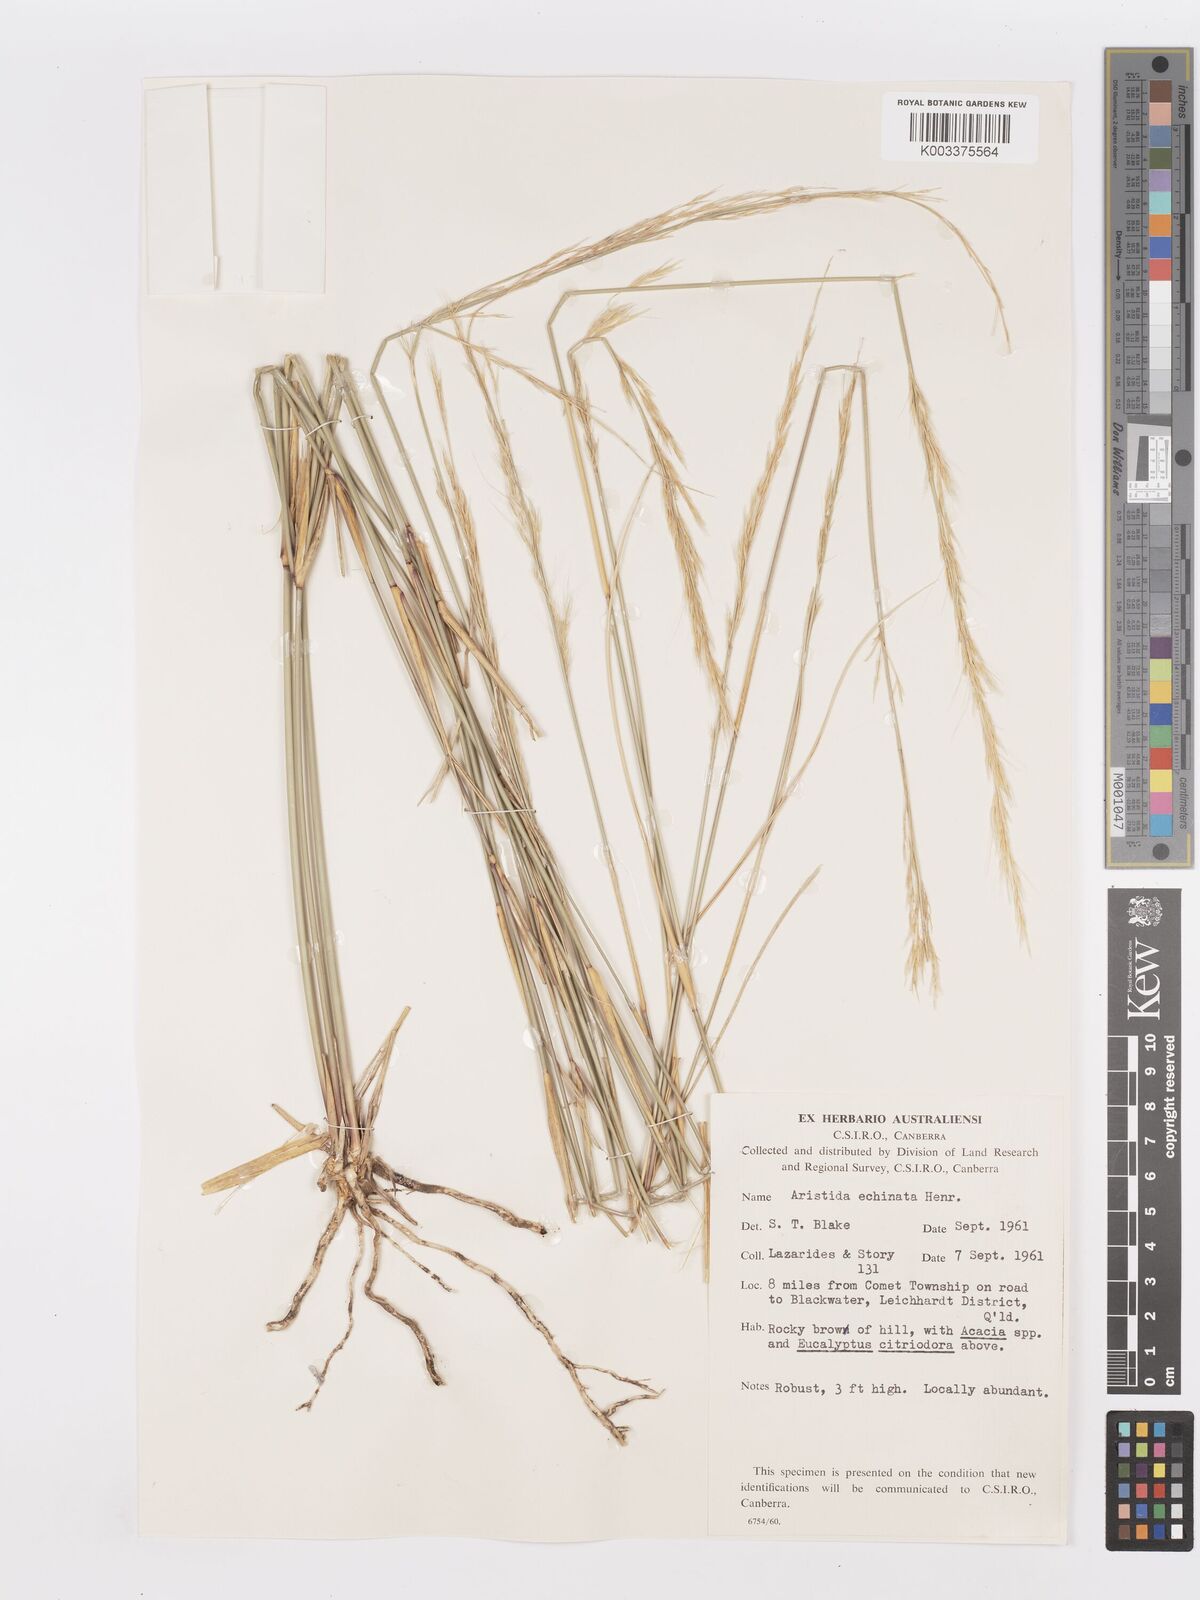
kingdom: Plantae
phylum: Tracheophyta
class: Liliopsida
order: Poales
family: Poaceae
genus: Aristida
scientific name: Aristida echinata
